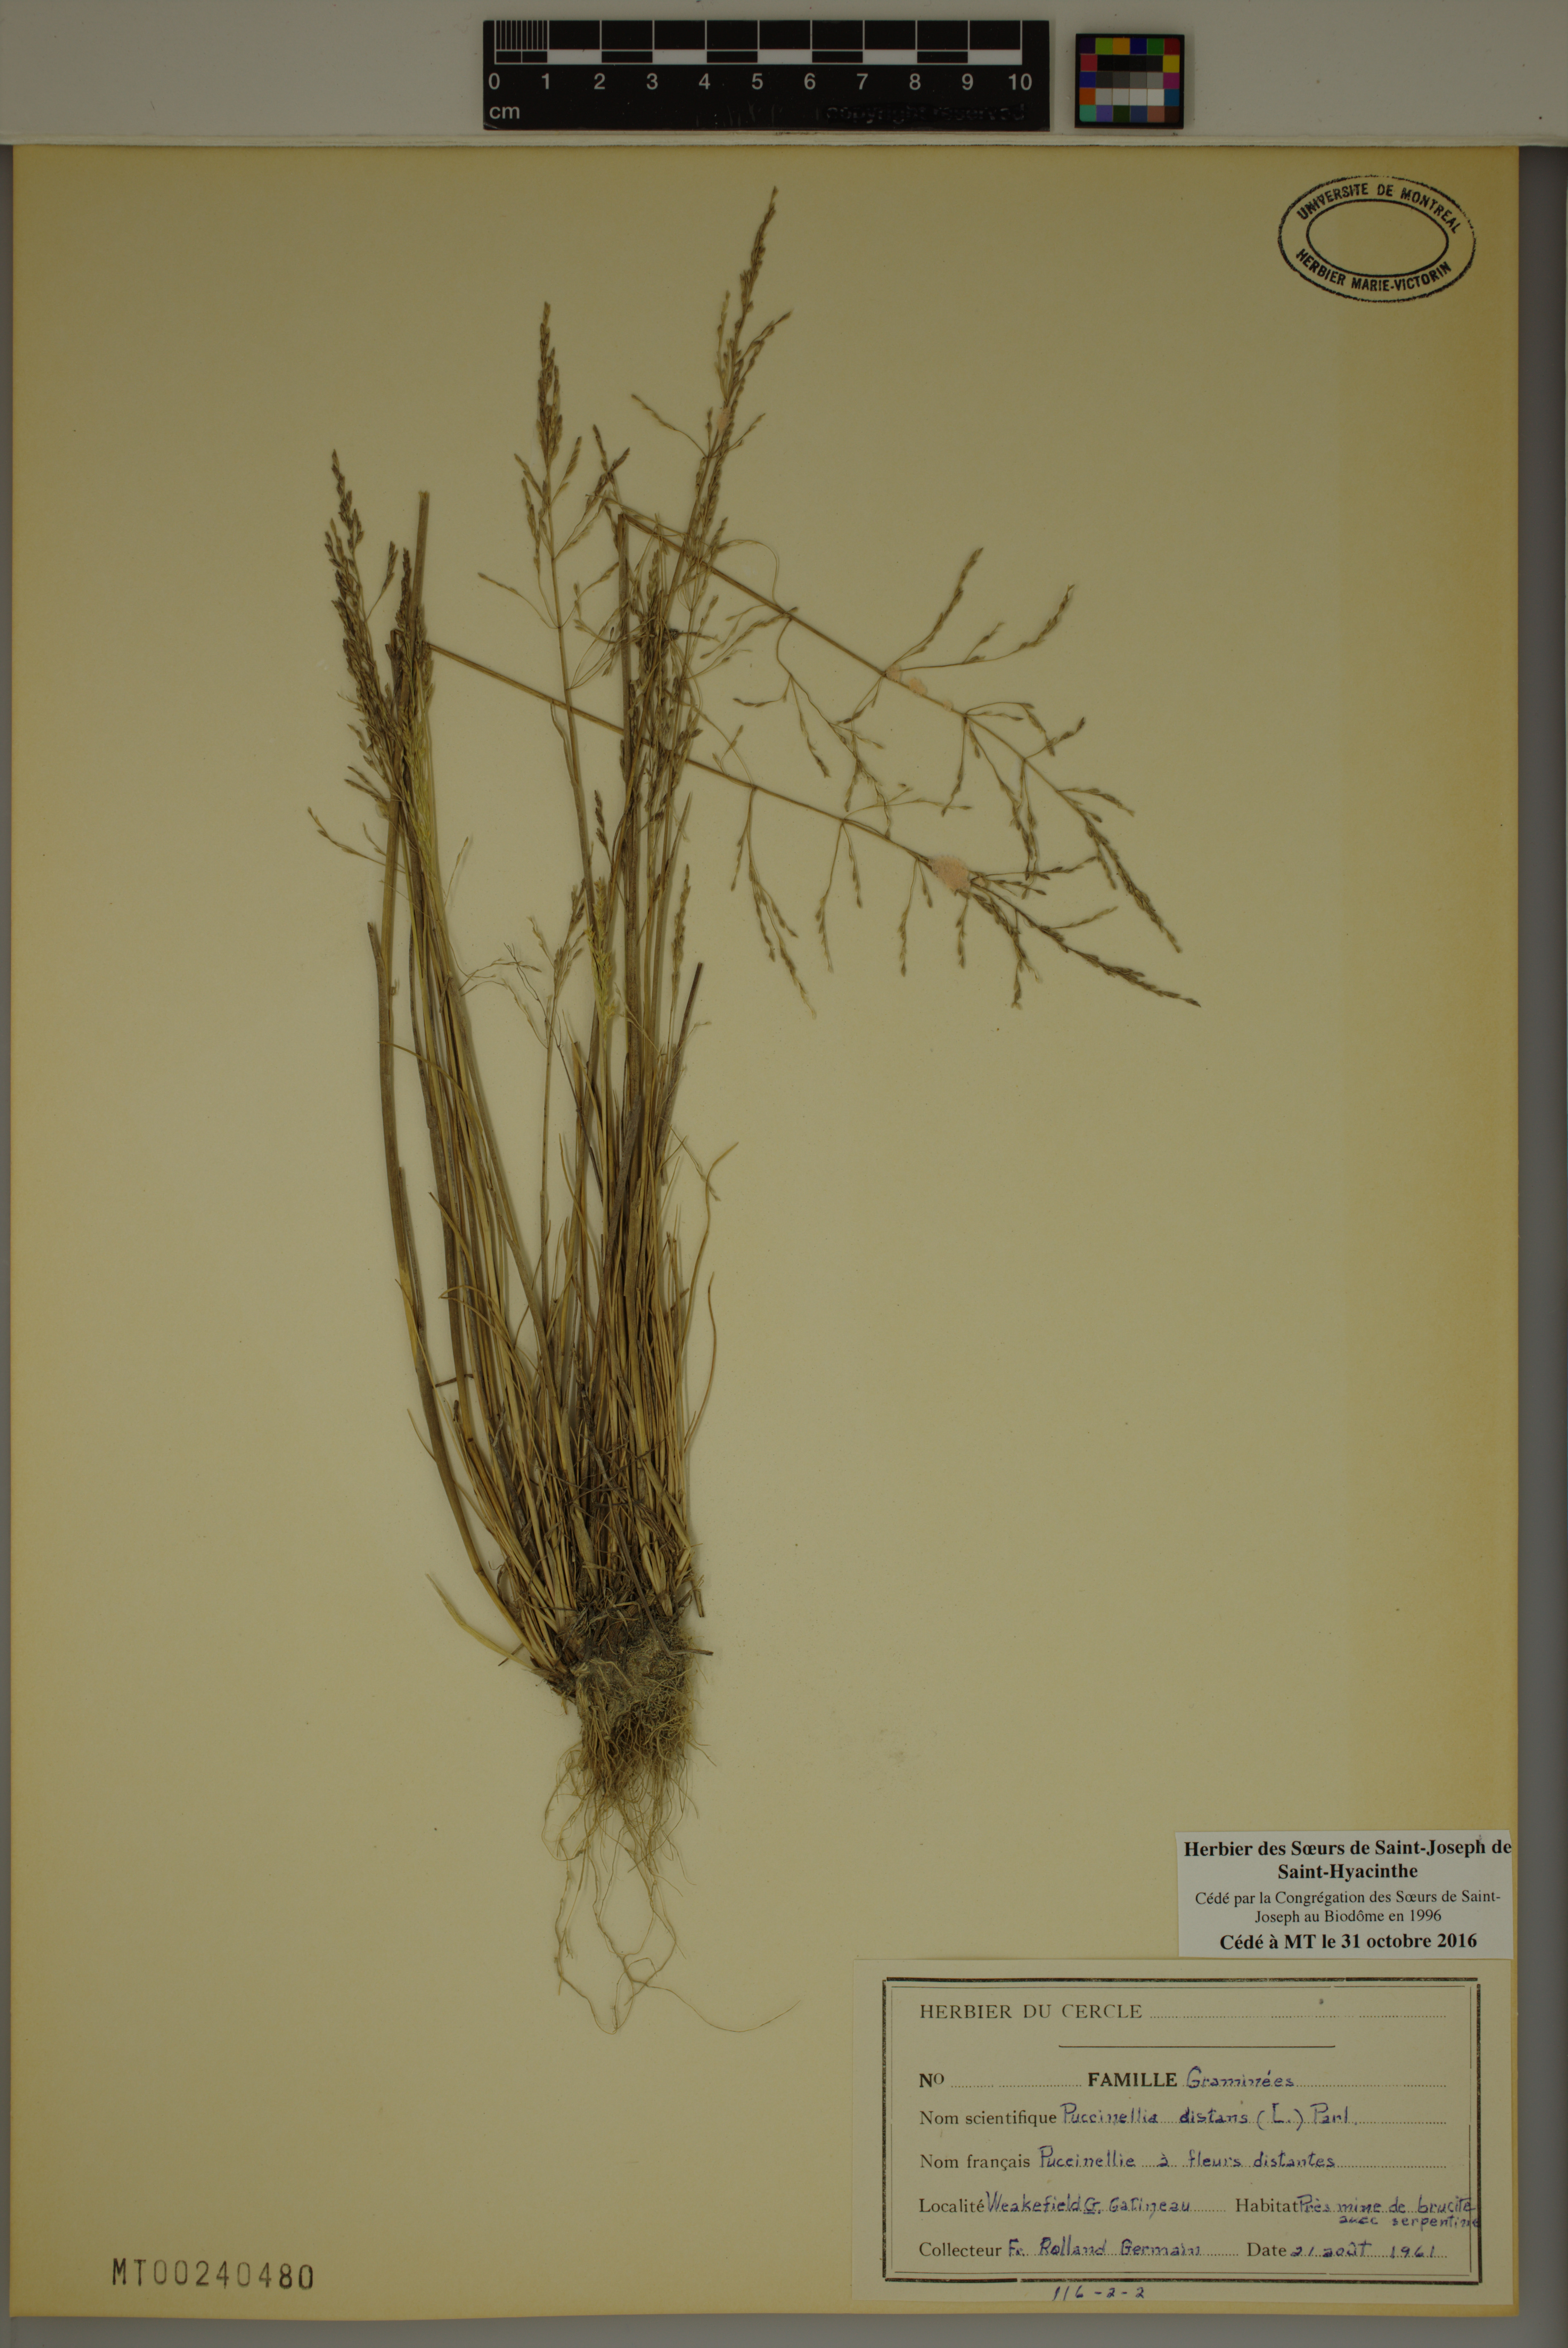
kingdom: Plantae
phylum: Tracheophyta
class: Liliopsida
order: Poales
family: Poaceae
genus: Puccinellia
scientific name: Puccinellia distans
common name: Weeping alkaligrass
